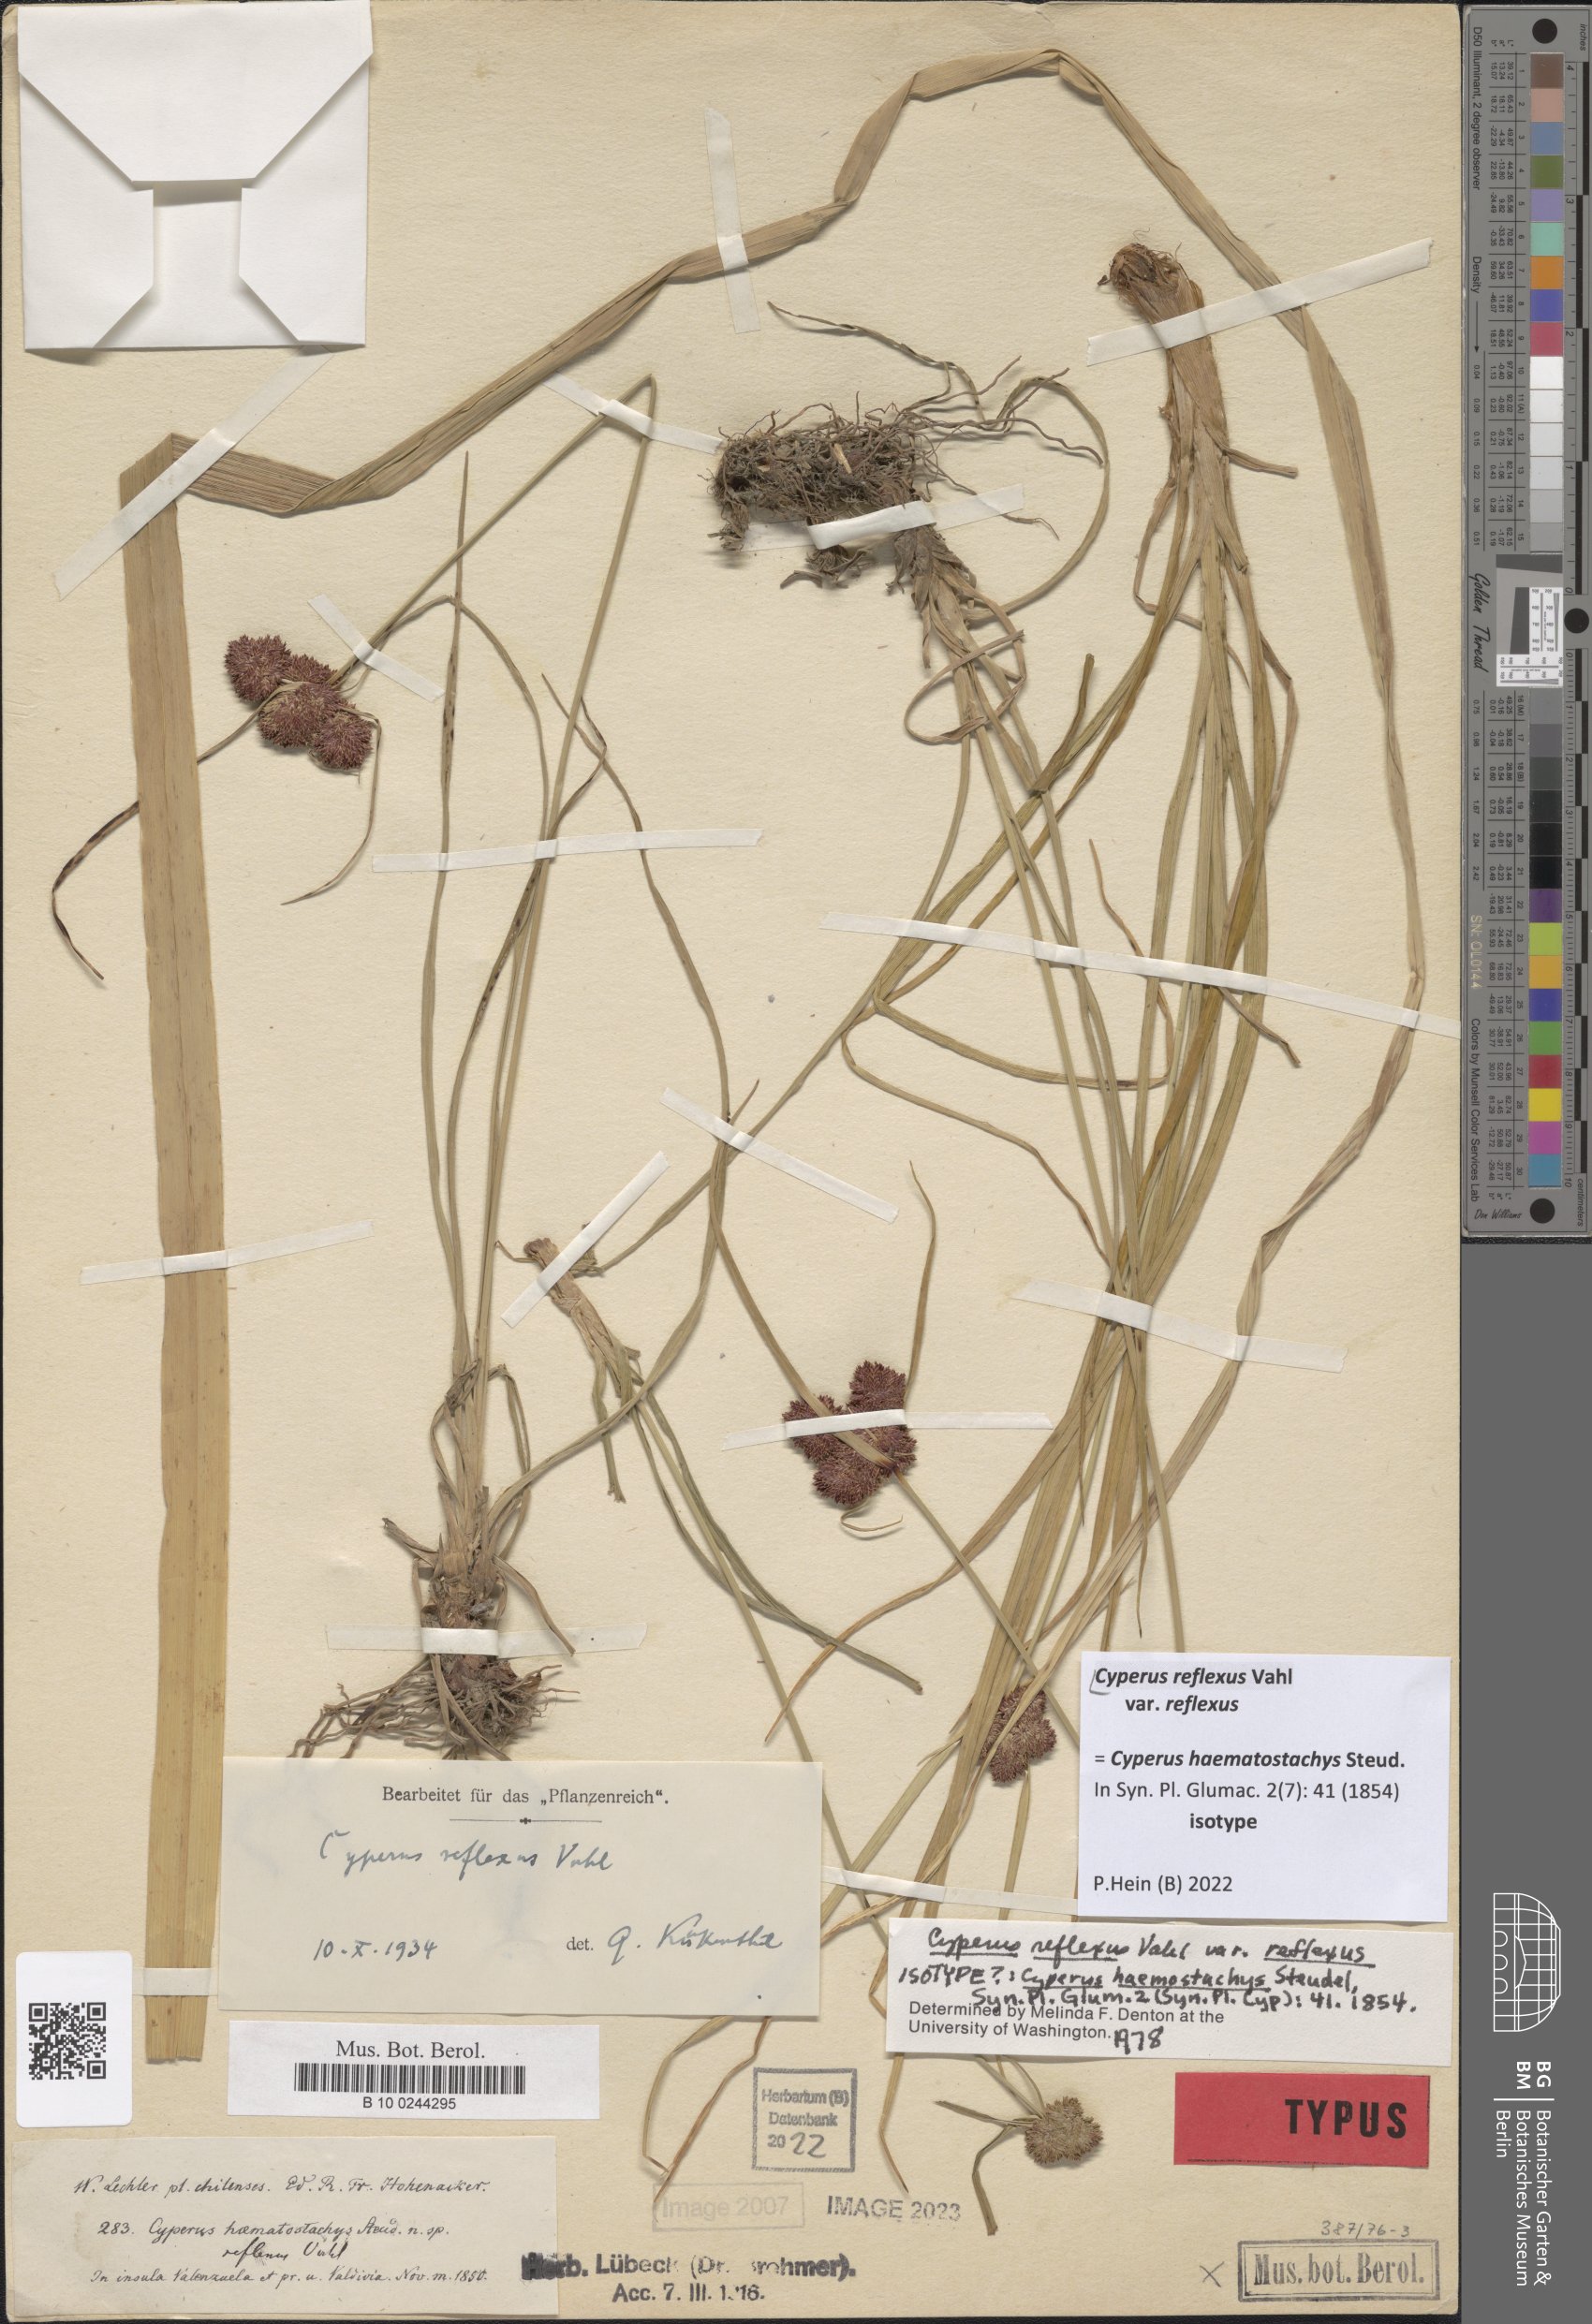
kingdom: Plantae
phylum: Tracheophyta
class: Liliopsida
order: Poales
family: Cyperaceae
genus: Cyperus
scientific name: Cyperus reflexus
